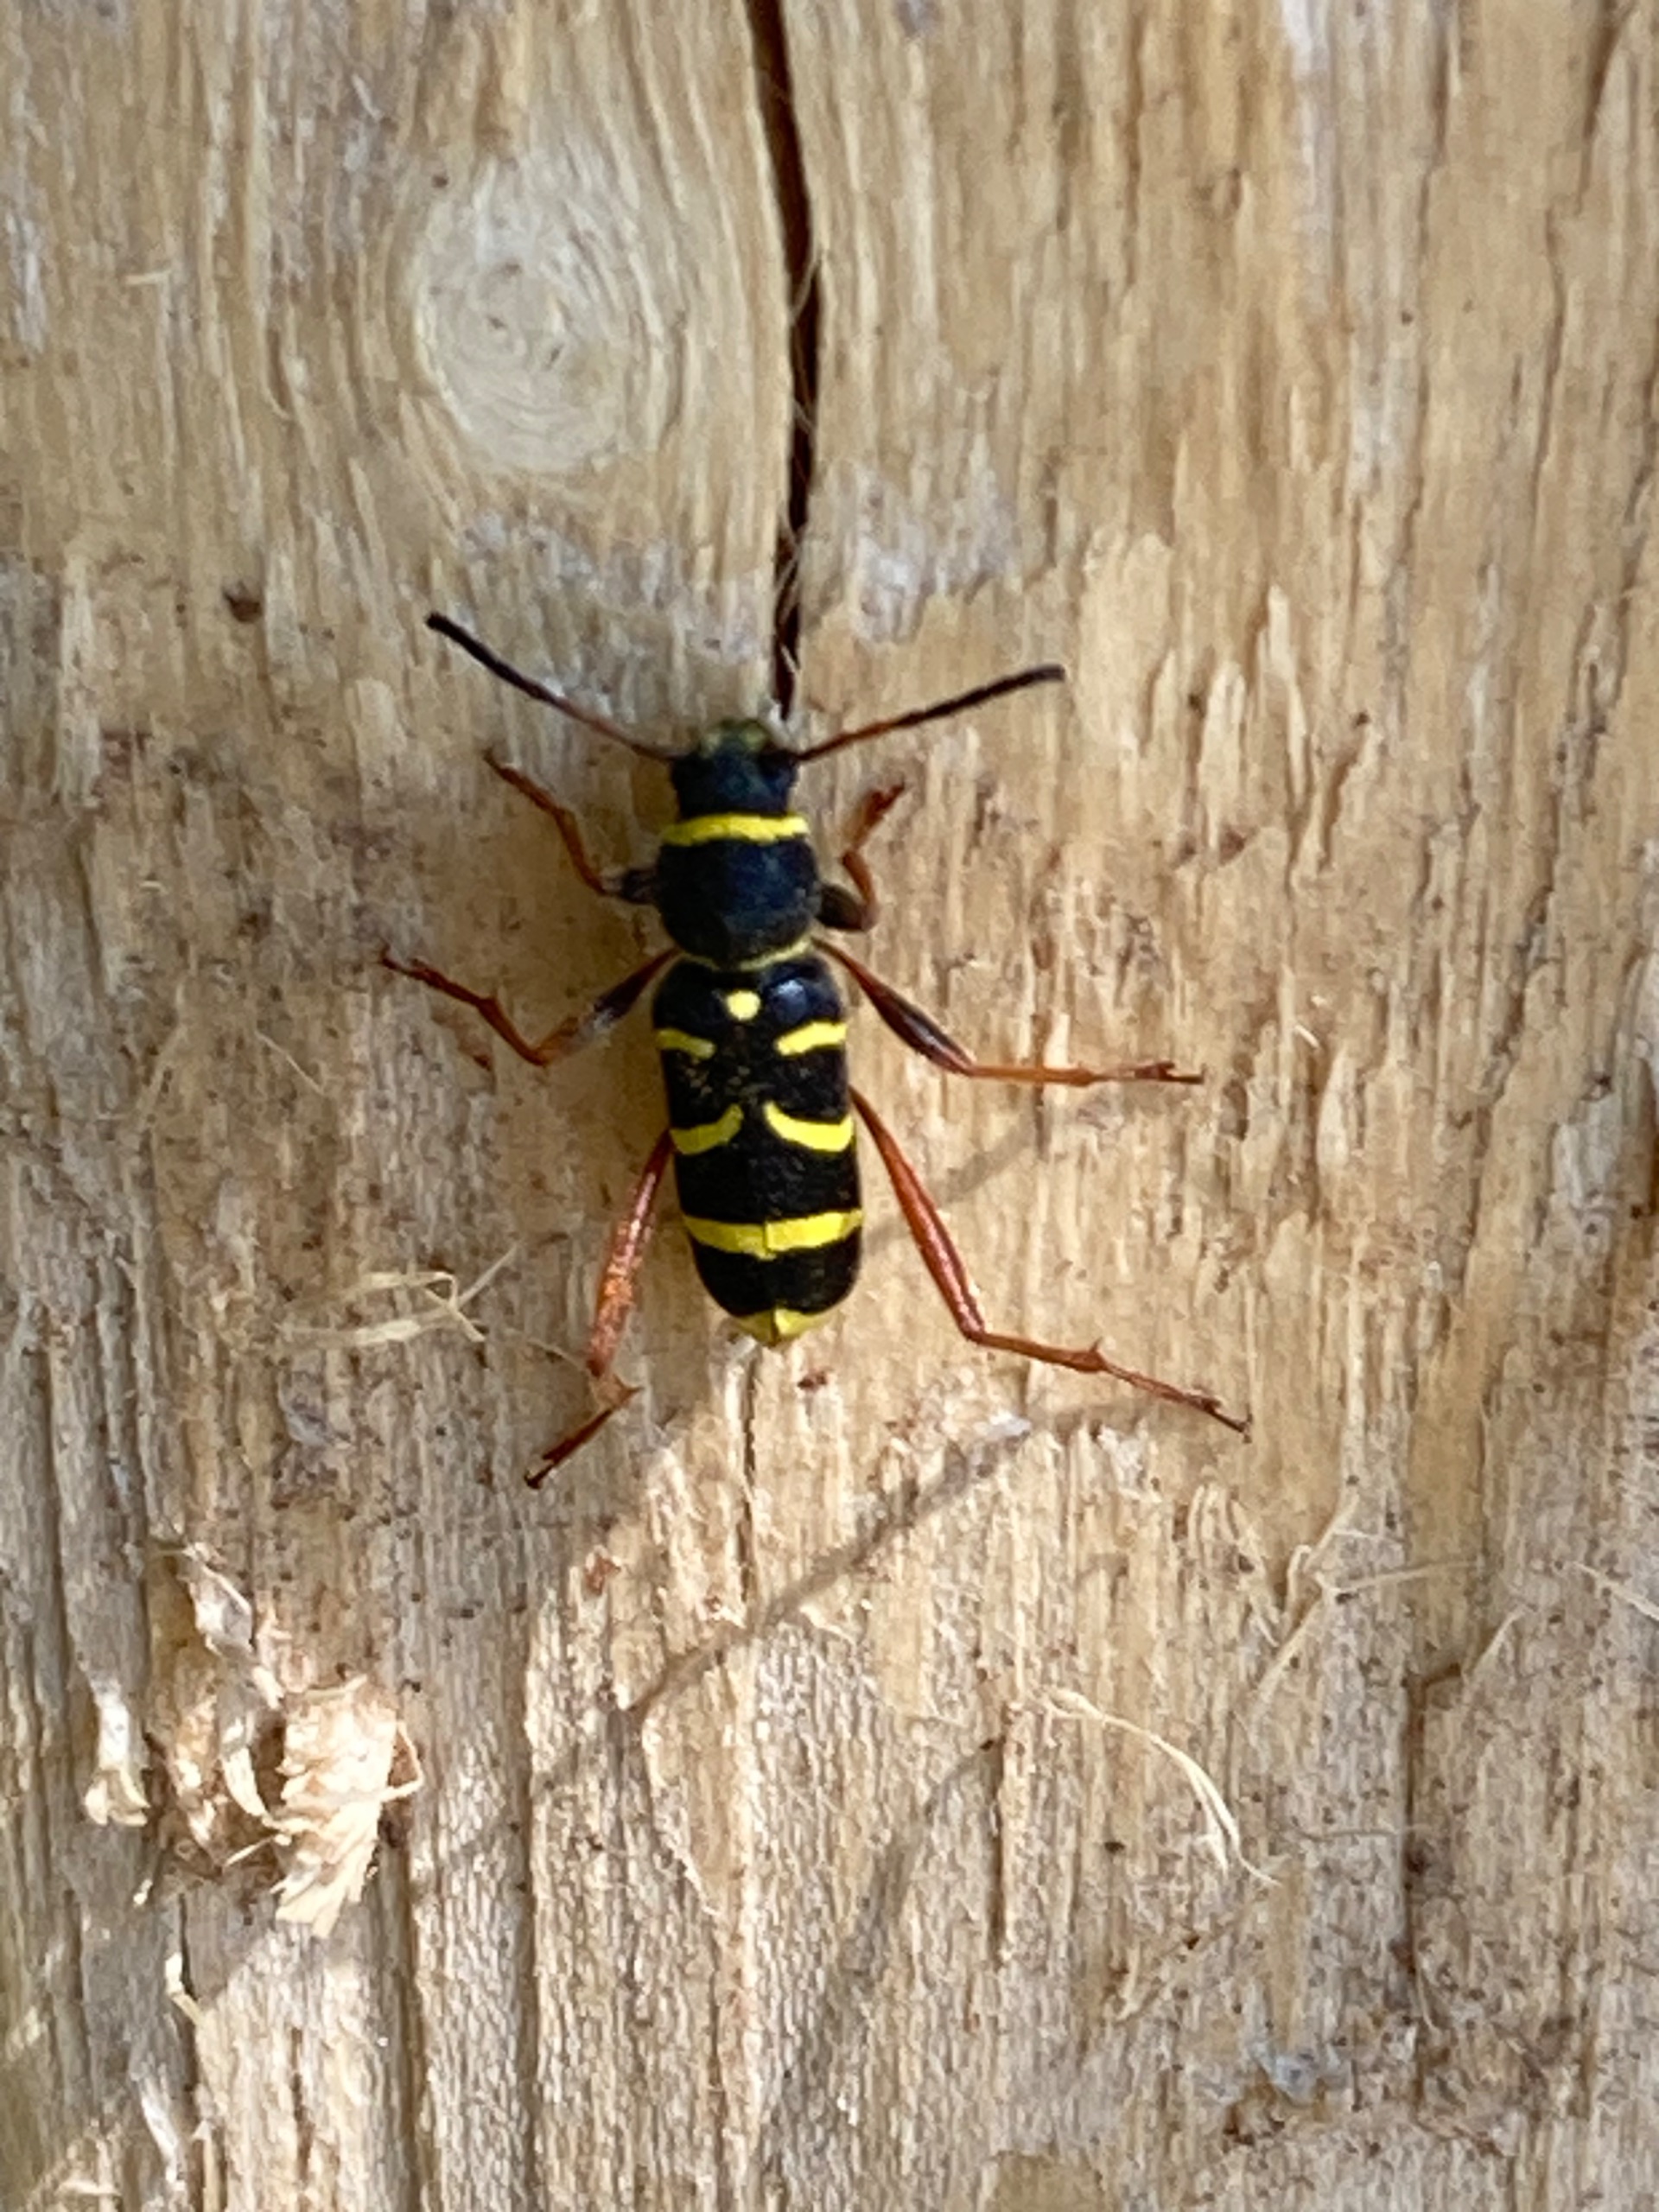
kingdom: Animalia
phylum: Arthropoda
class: Insecta
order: Coleoptera
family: Cerambycidae
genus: Clytus
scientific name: Clytus arietis
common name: Lille hvepsebuk
